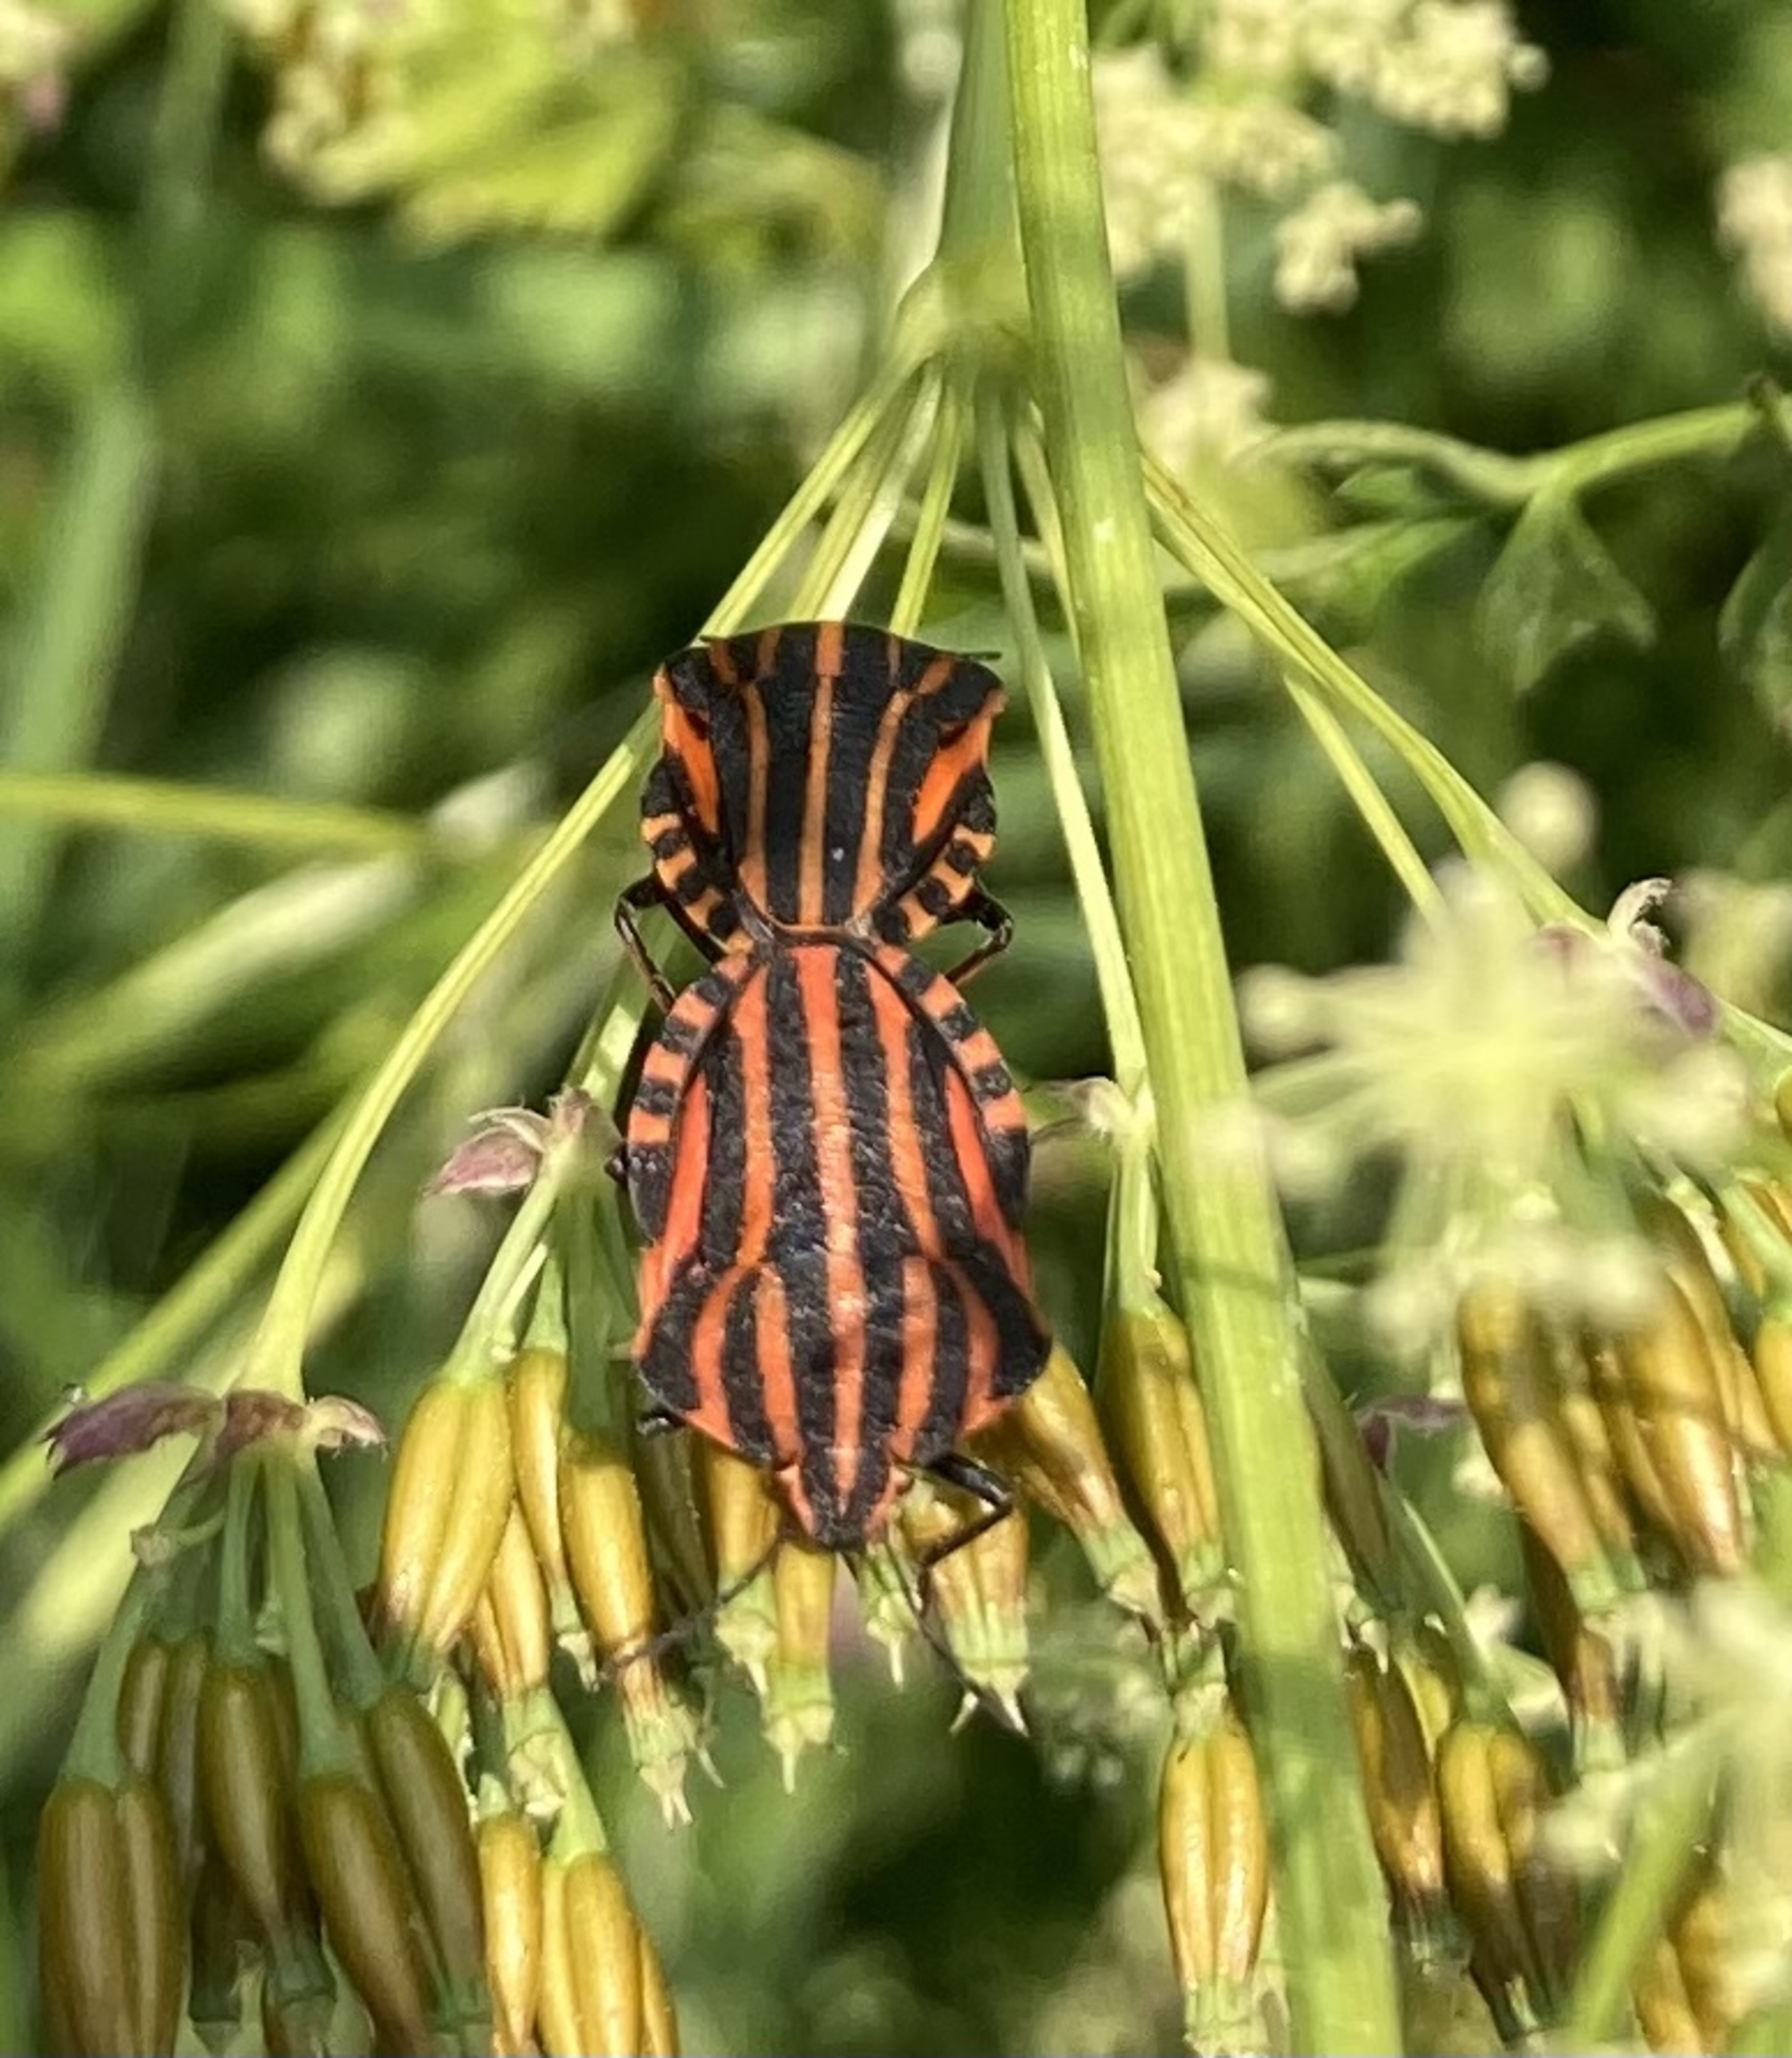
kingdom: Animalia
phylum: Arthropoda
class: Insecta
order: Hemiptera
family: Pentatomidae
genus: Graphosoma
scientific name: Graphosoma italicum
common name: Stribetæge
